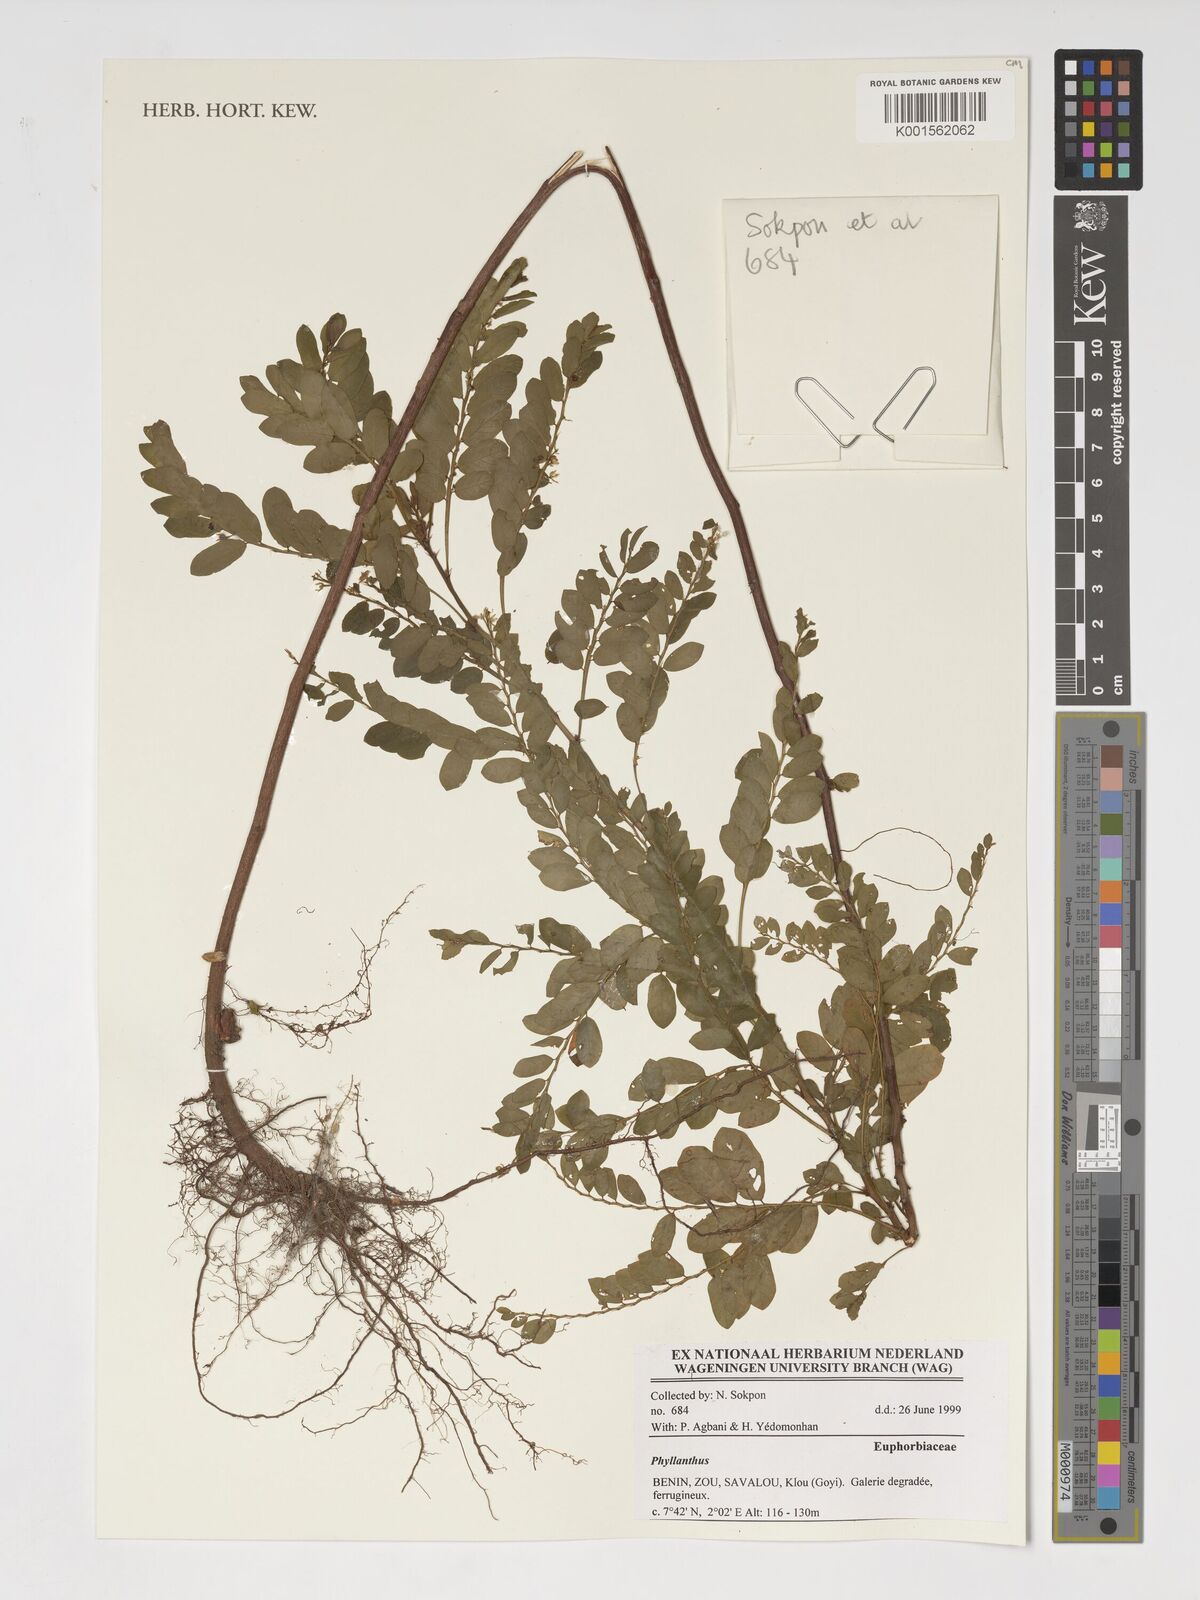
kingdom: Plantae
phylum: Tracheophyta
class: Magnoliopsida
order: Malpighiales
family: Phyllanthaceae
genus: Phyllanthus
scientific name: Phyllanthus
